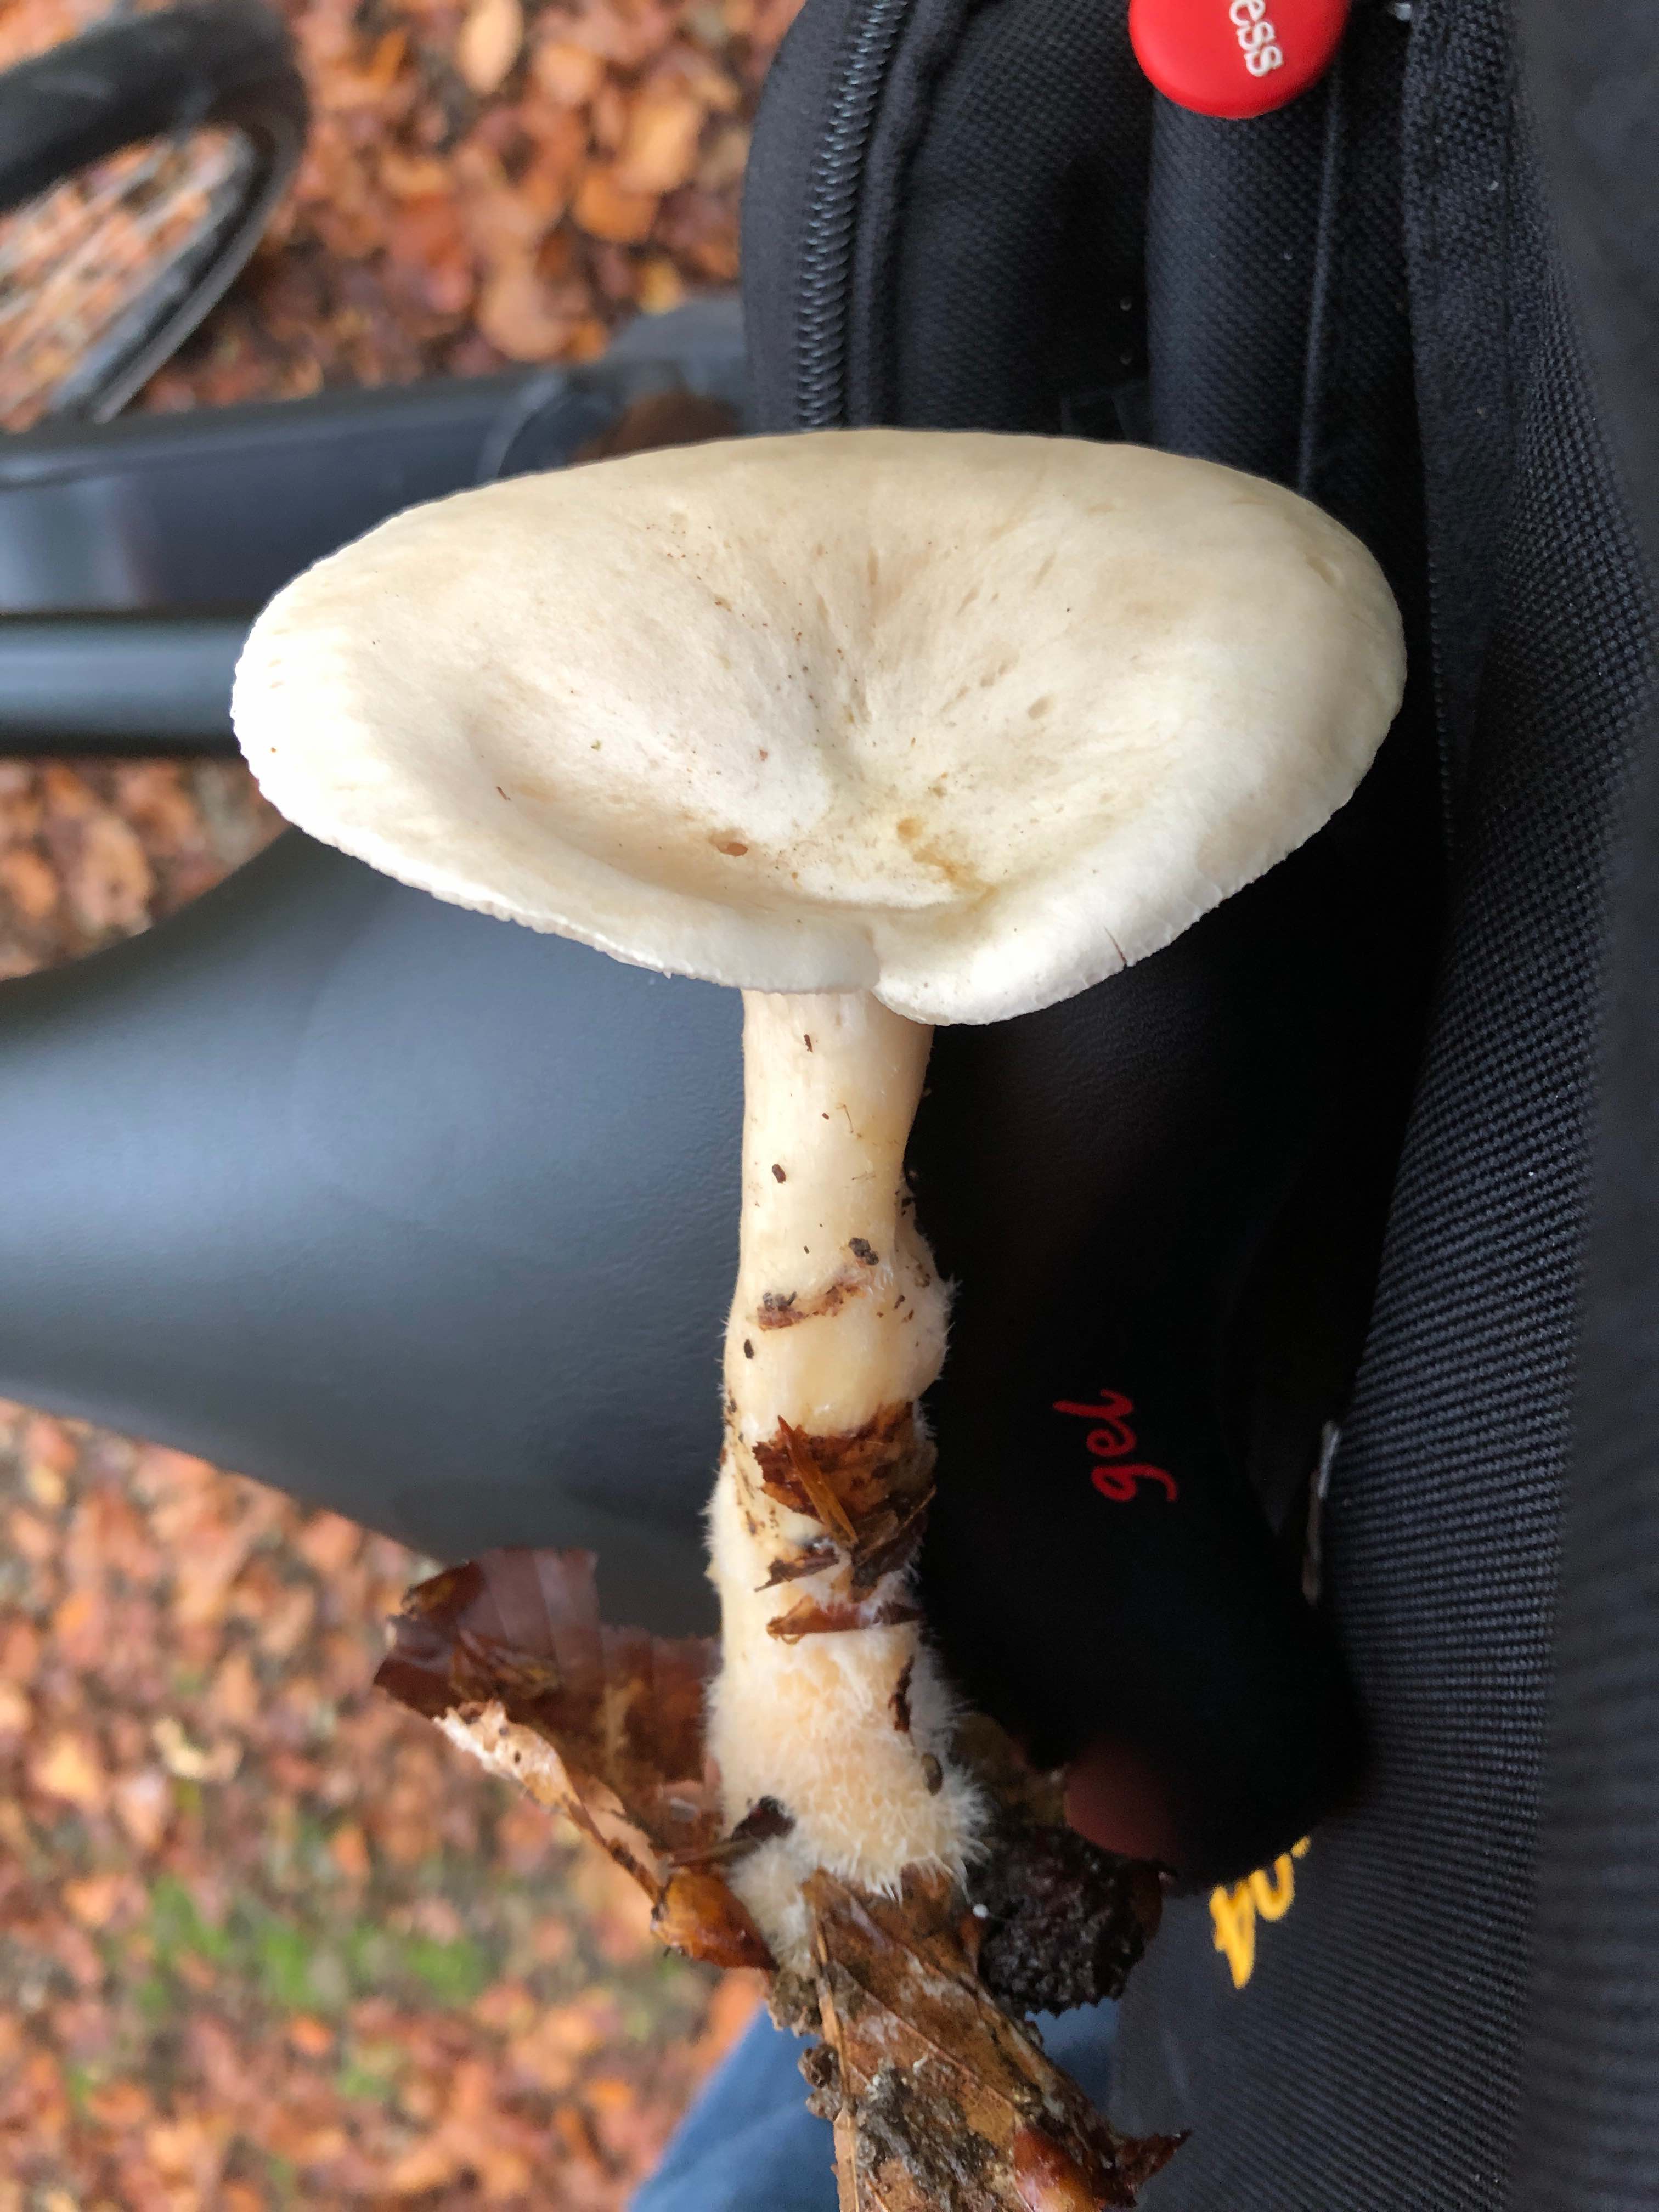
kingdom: Fungi
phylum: Basidiomycota
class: Agaricomycetes
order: Agaricales
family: Tricholomataceae
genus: Infundibulicybe
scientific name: Infundibulicybe geotropa
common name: stor tragthat
